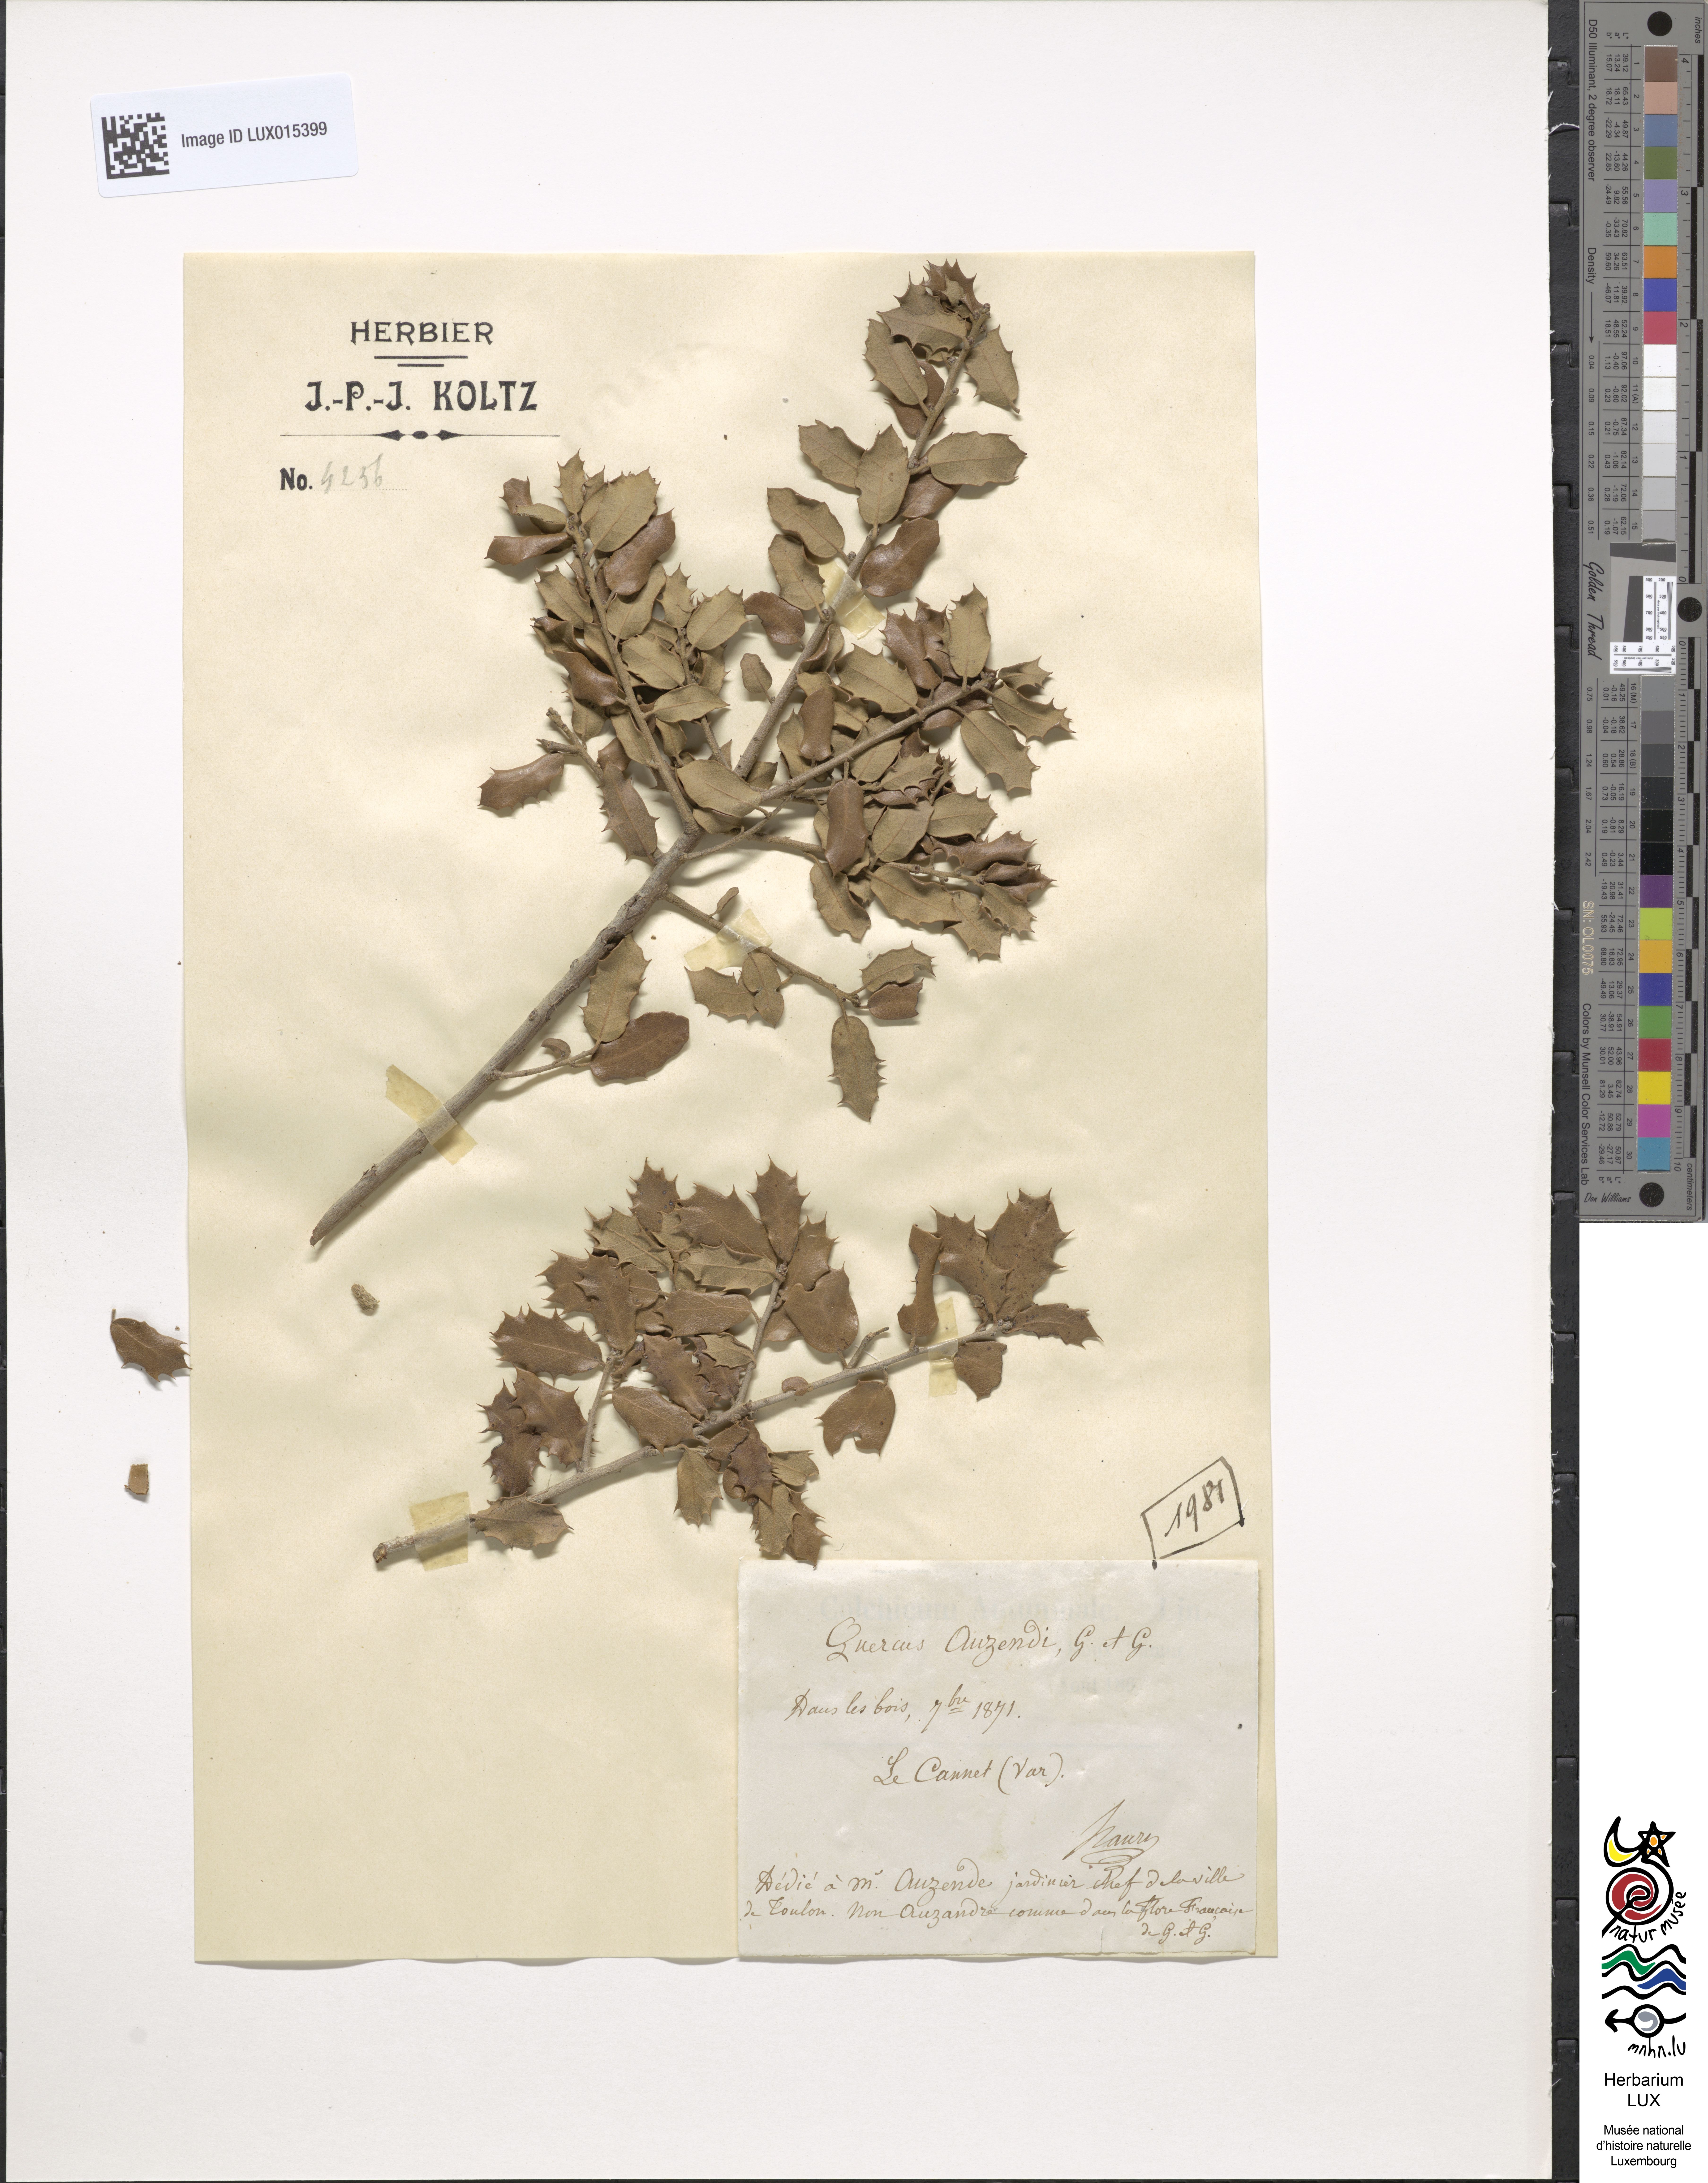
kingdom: Plantae
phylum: Tracheophyta
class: Magnoliopsida
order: Fagales
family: Fagaceae
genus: Quercus
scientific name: Quercus auzendei
